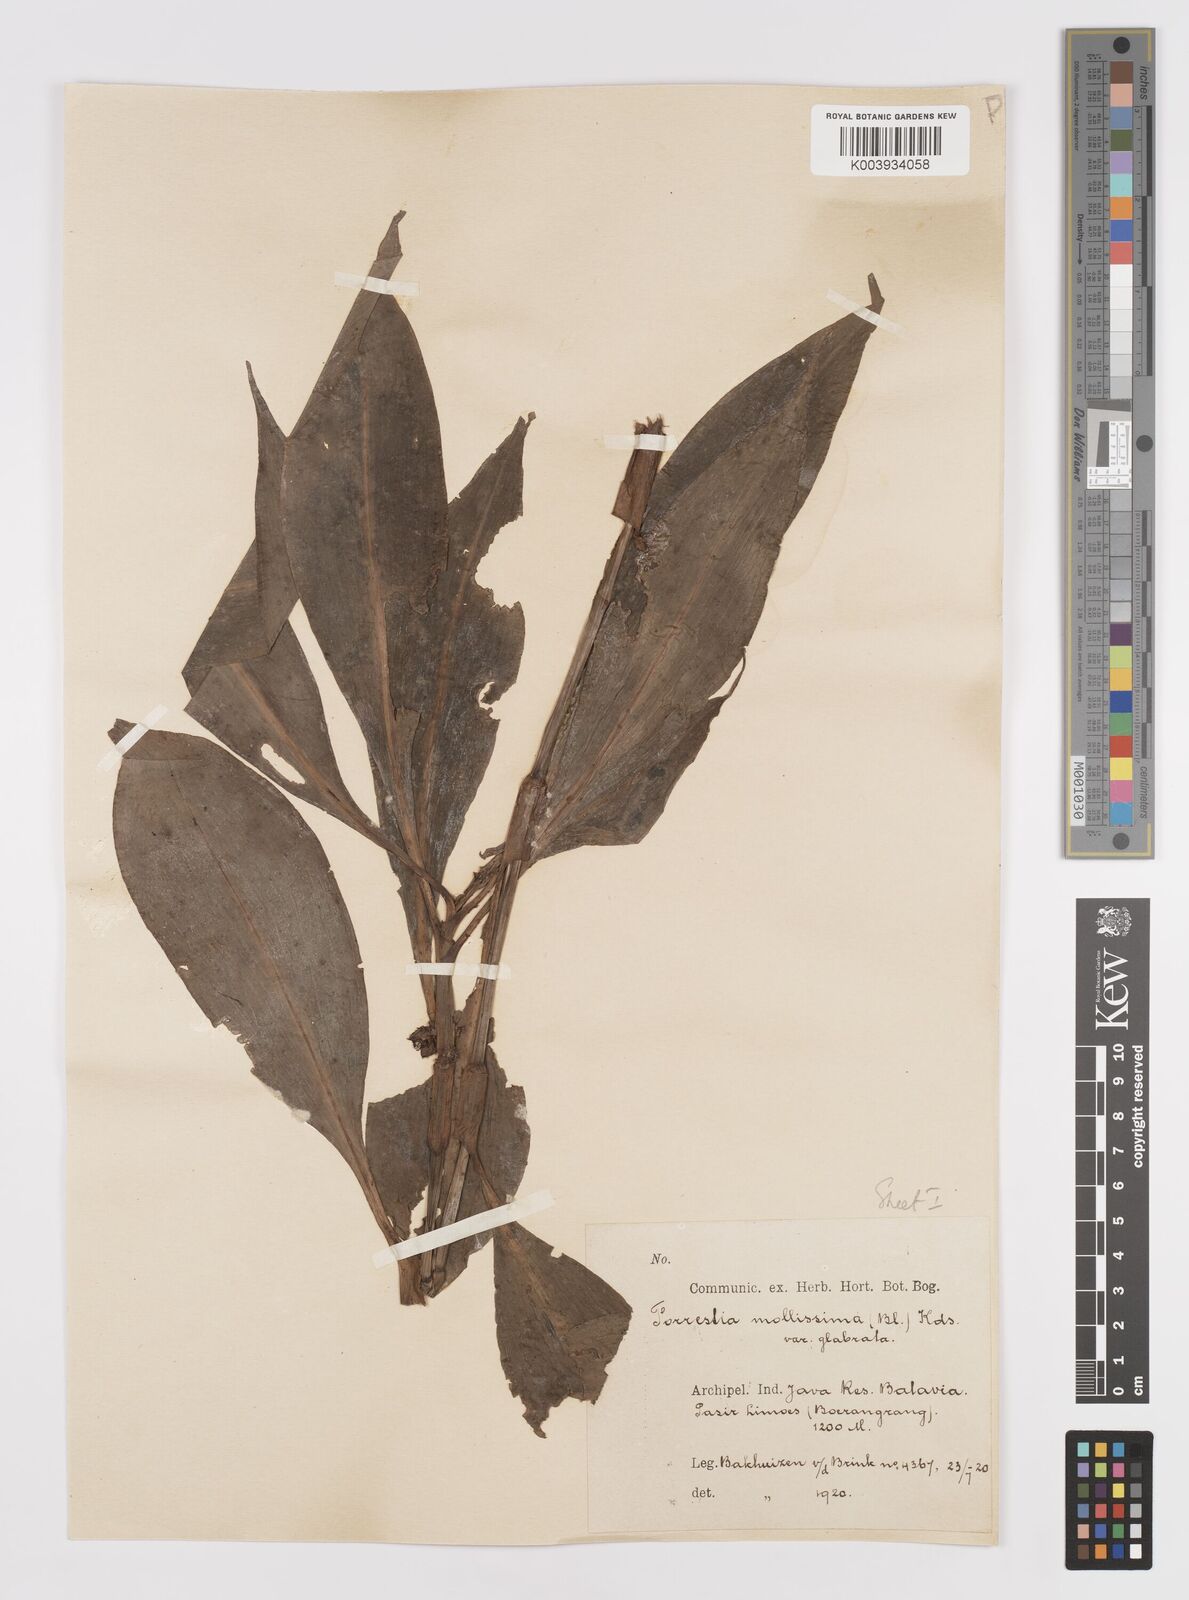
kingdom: Plantae
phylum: Tracheophyta
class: Liliopsida
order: Commelinales
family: Commelinaceae
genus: Amischotolype
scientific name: Amischotolype glabrata
